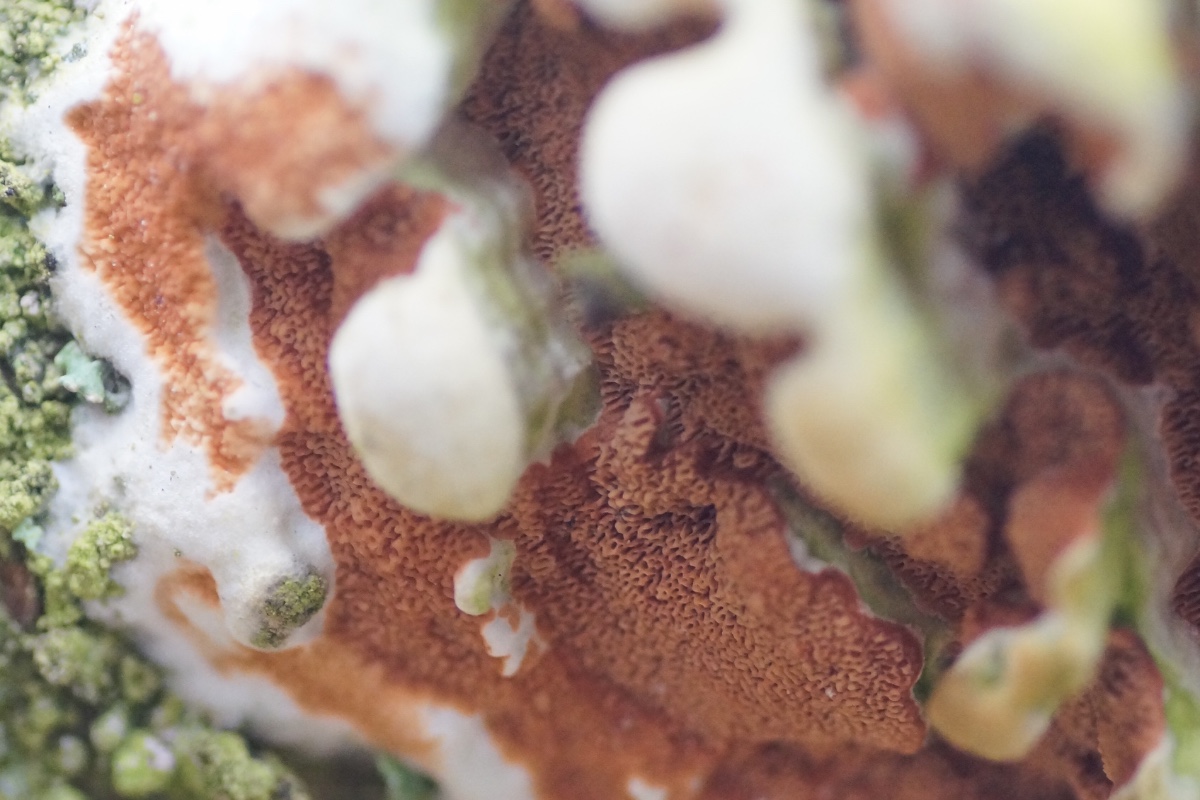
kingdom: Fungi
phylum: Basidiomycota
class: Agaricomycetes
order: Polyporales
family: Irpicaceae
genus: Meruliopsis
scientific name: Meruliopsis taxicola
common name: purpurbrun foldporesvamp
